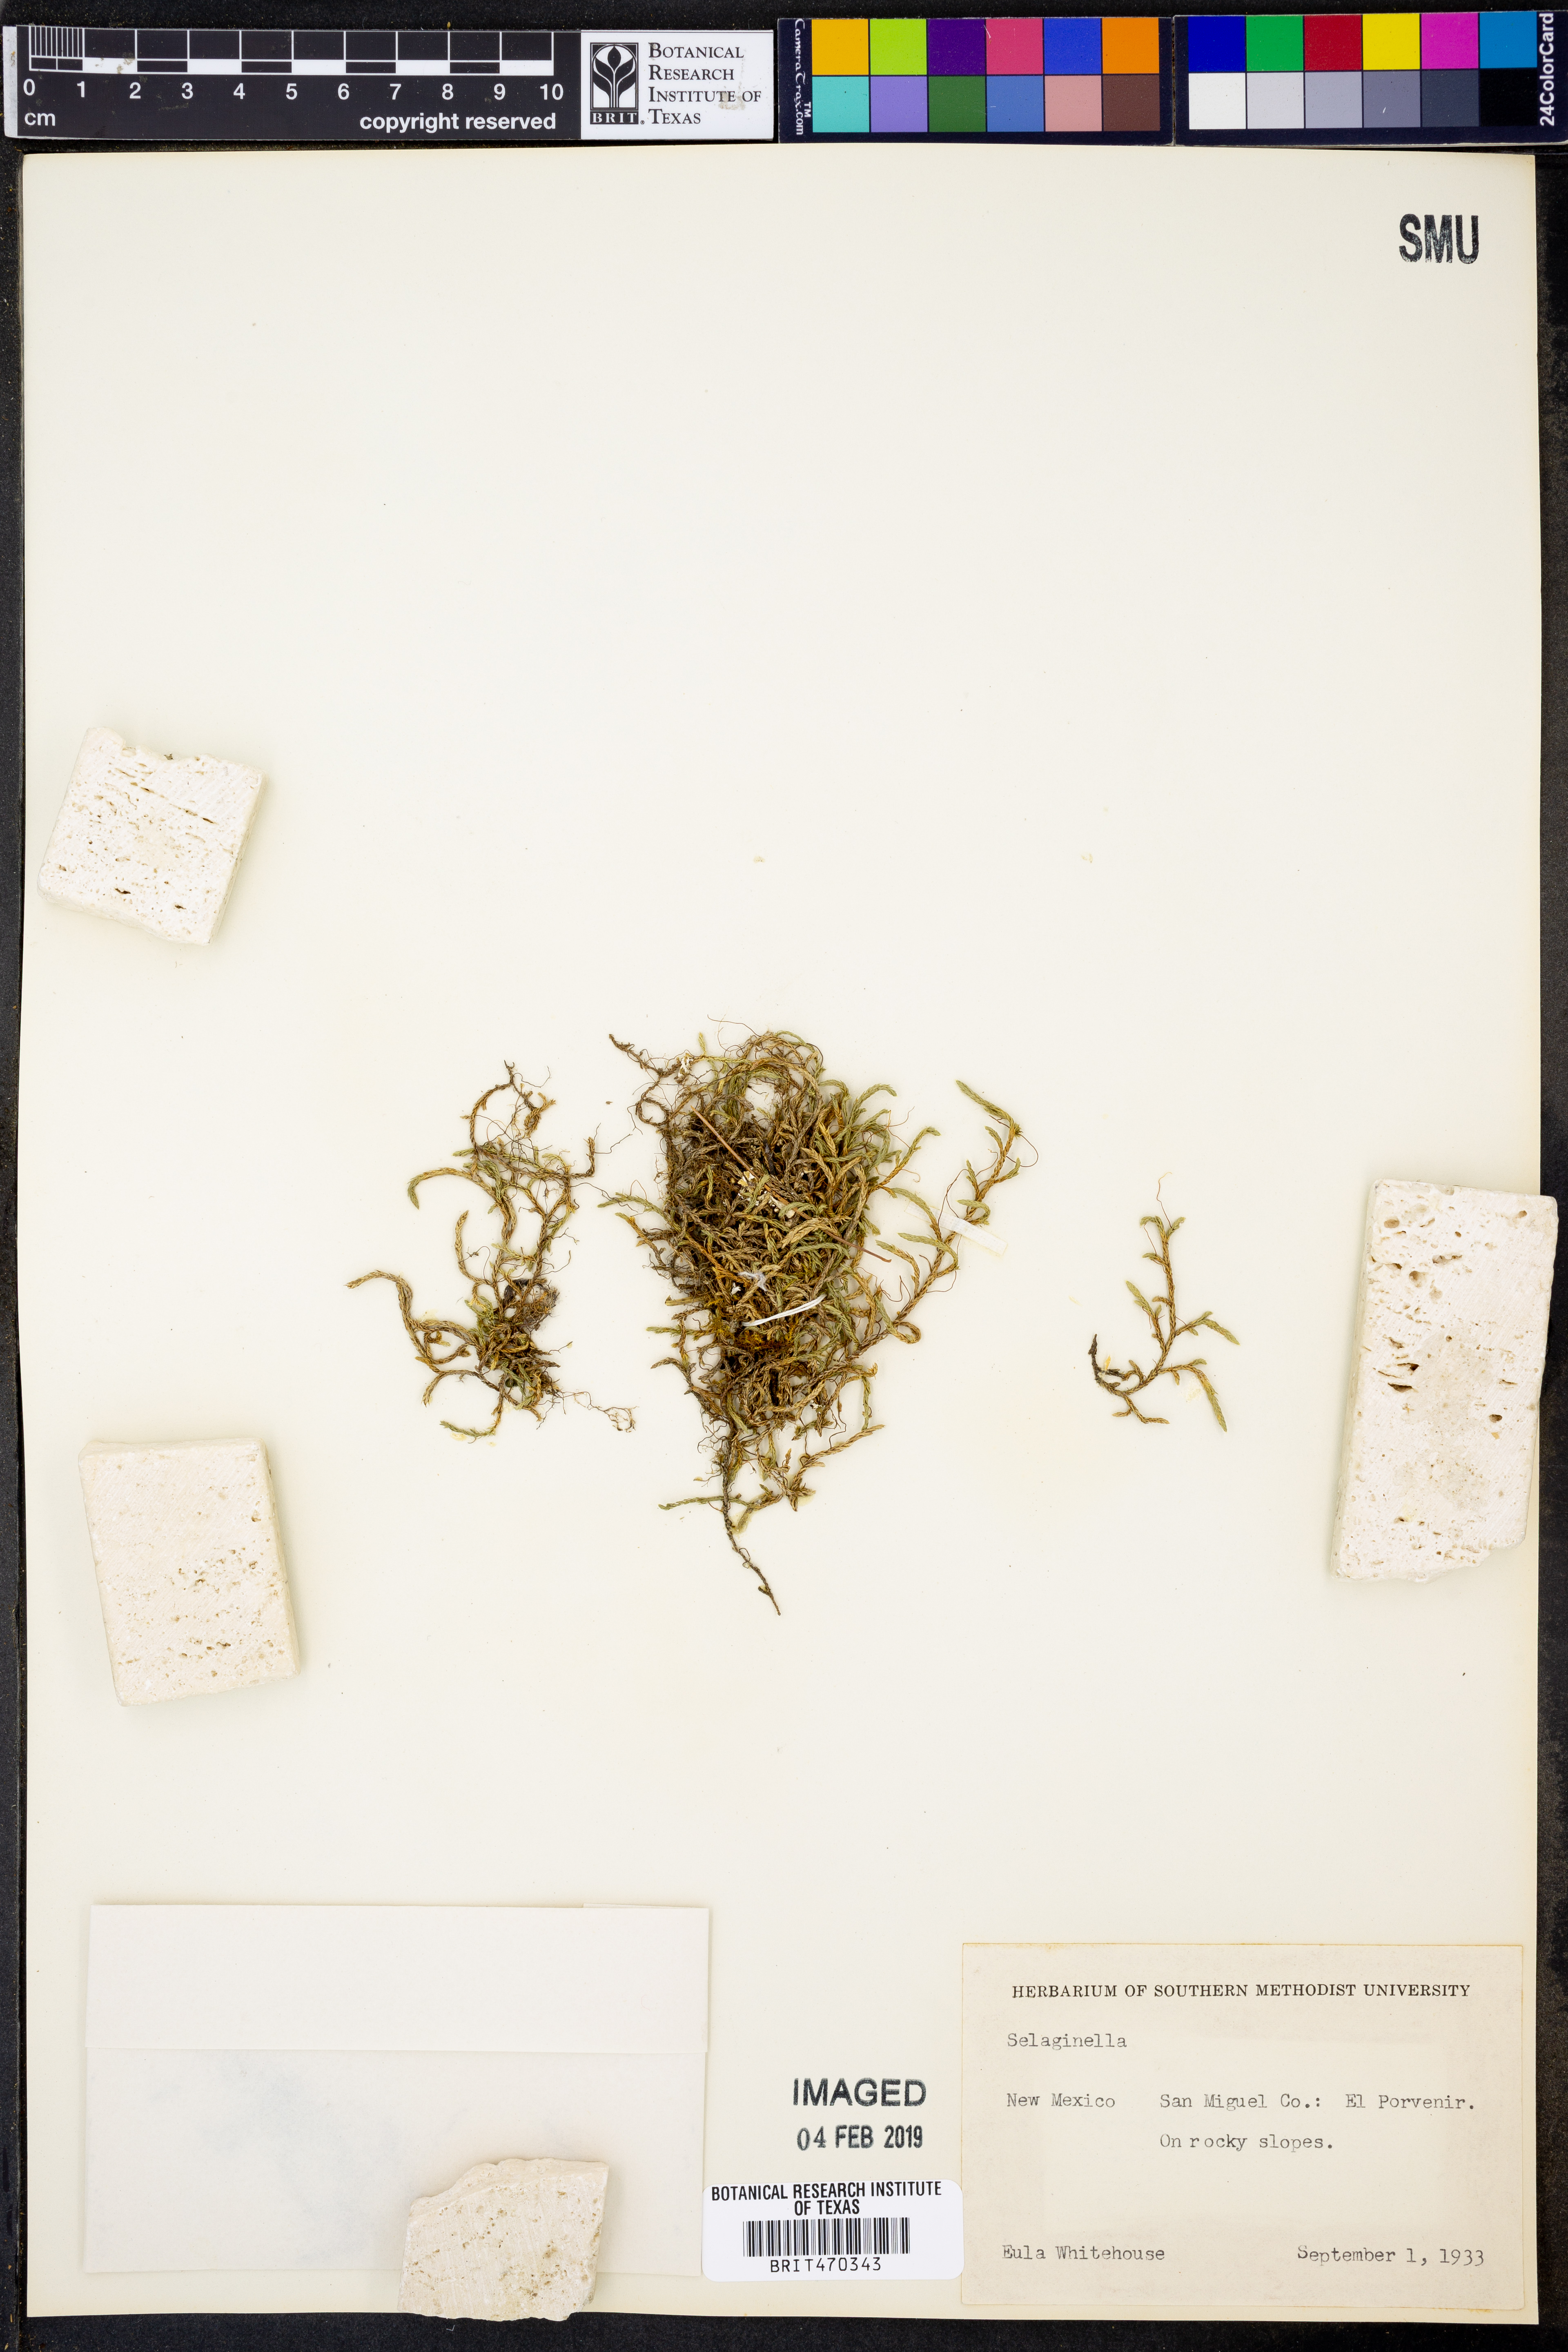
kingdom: Plantae
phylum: Tracheophyta
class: Lycopodiopsida
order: Selaginellales
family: Selaginellaceae
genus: Selaginella
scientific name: Selaginella
